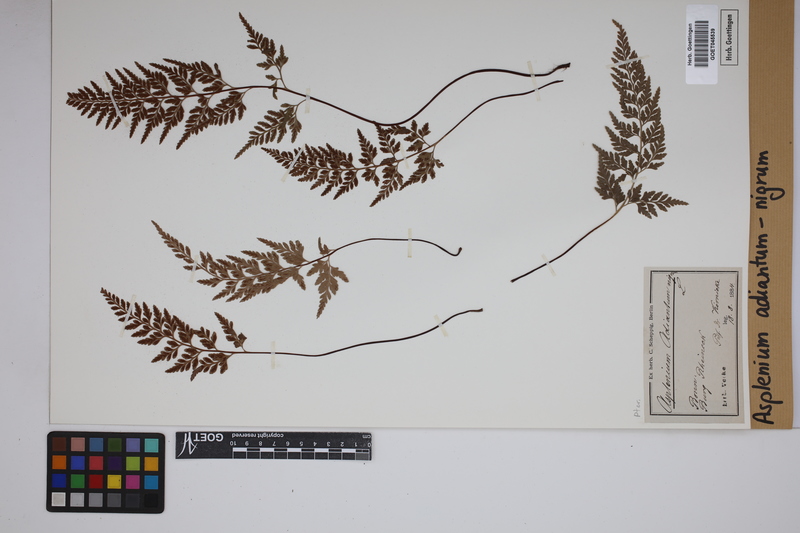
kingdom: Plantae
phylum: Tracheophyta
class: Polypodiopsida
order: Polypodiales
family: Aspleniaceae
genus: Asplenium
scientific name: Asplenium adiantum-nigrum
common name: Black spleenwort
